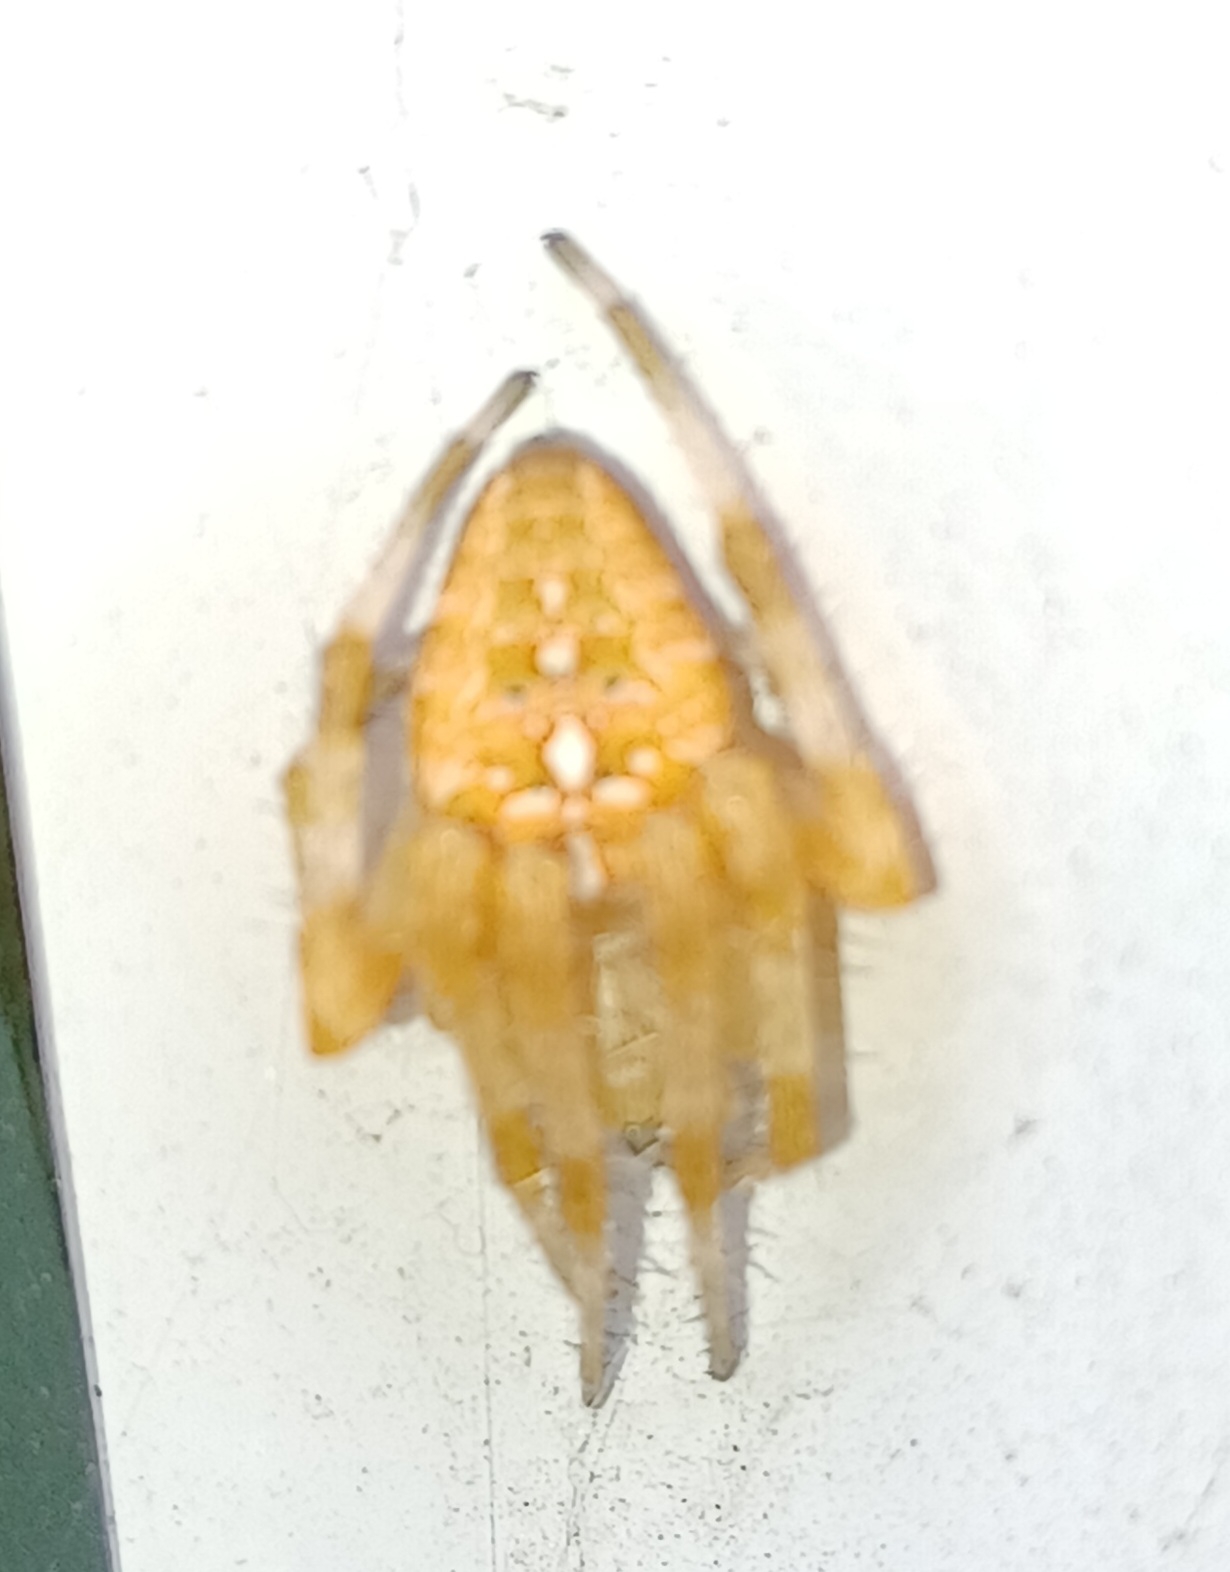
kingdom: Animalia
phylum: Arthropoda
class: Arachnida
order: Araneae
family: Araneidae
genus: Araneus
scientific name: Araneus diadematus
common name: Korsedderkop
